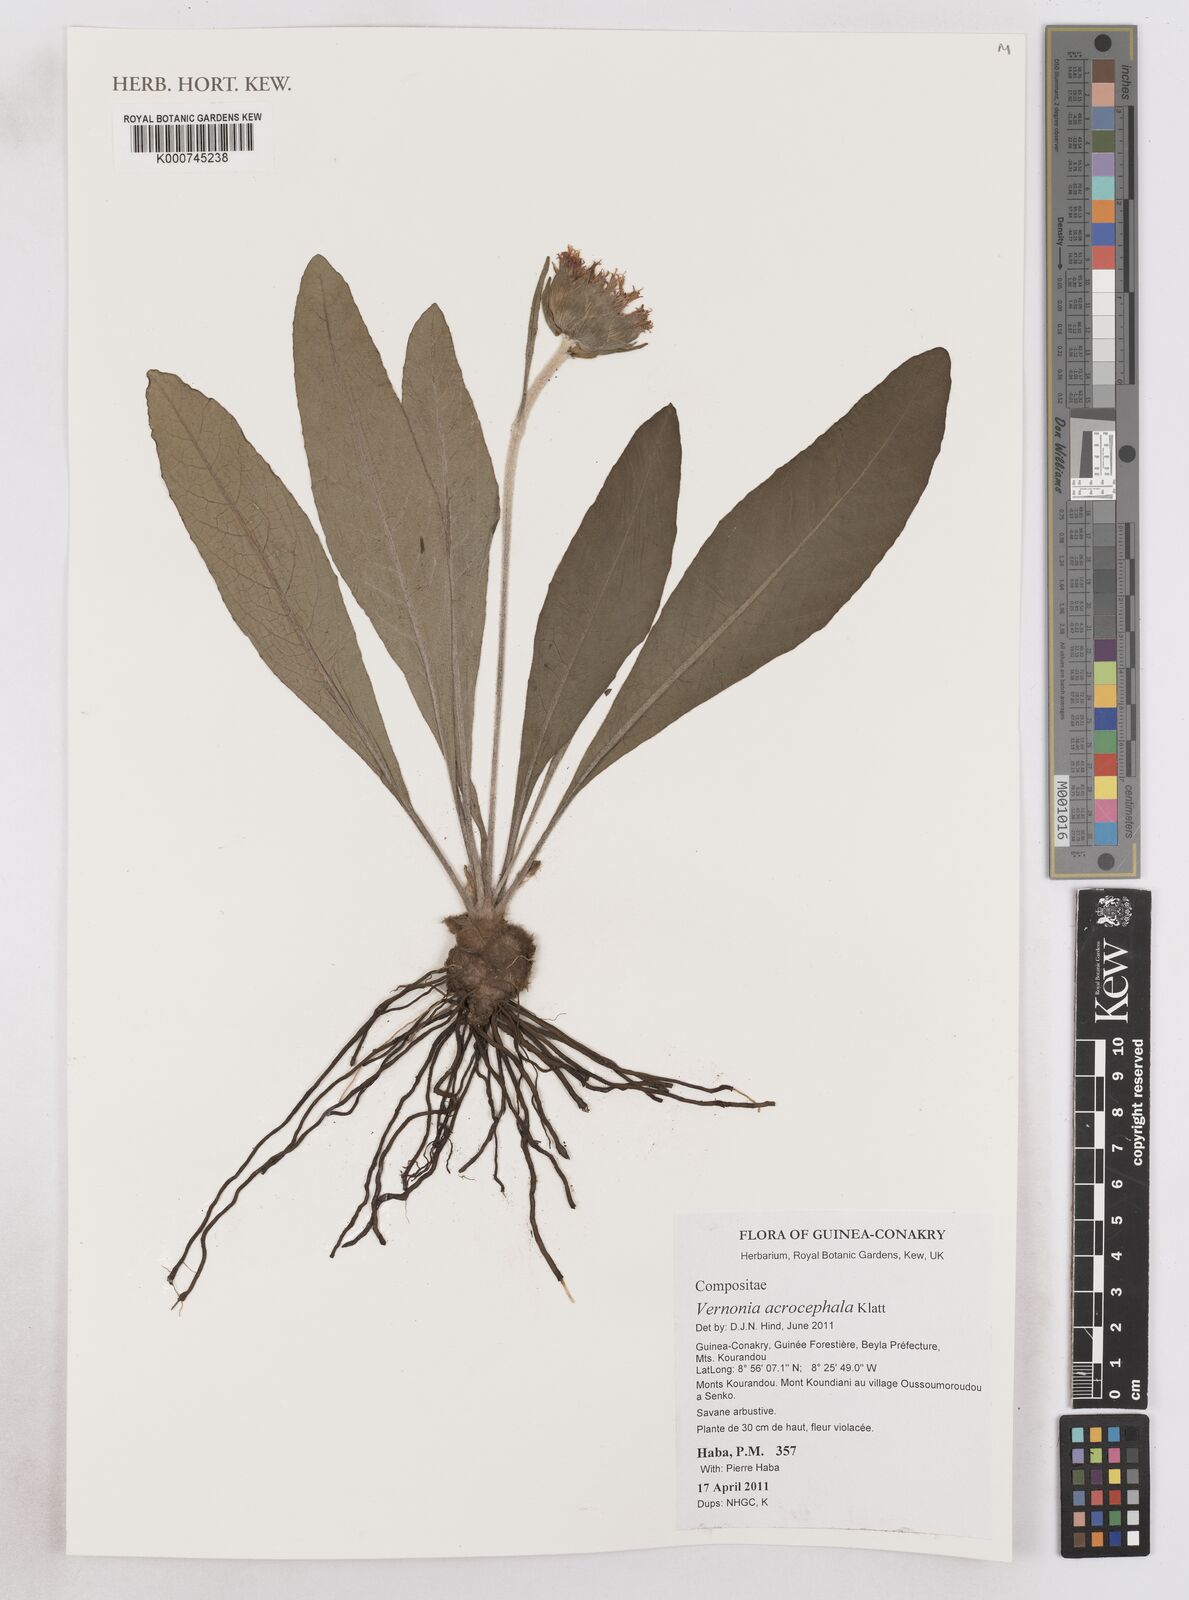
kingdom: Plantae
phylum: Tracheophyta
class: Magnoliopsida
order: Asterales
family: Asteraceae
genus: Vernonella
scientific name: Vernonella acrocephala
